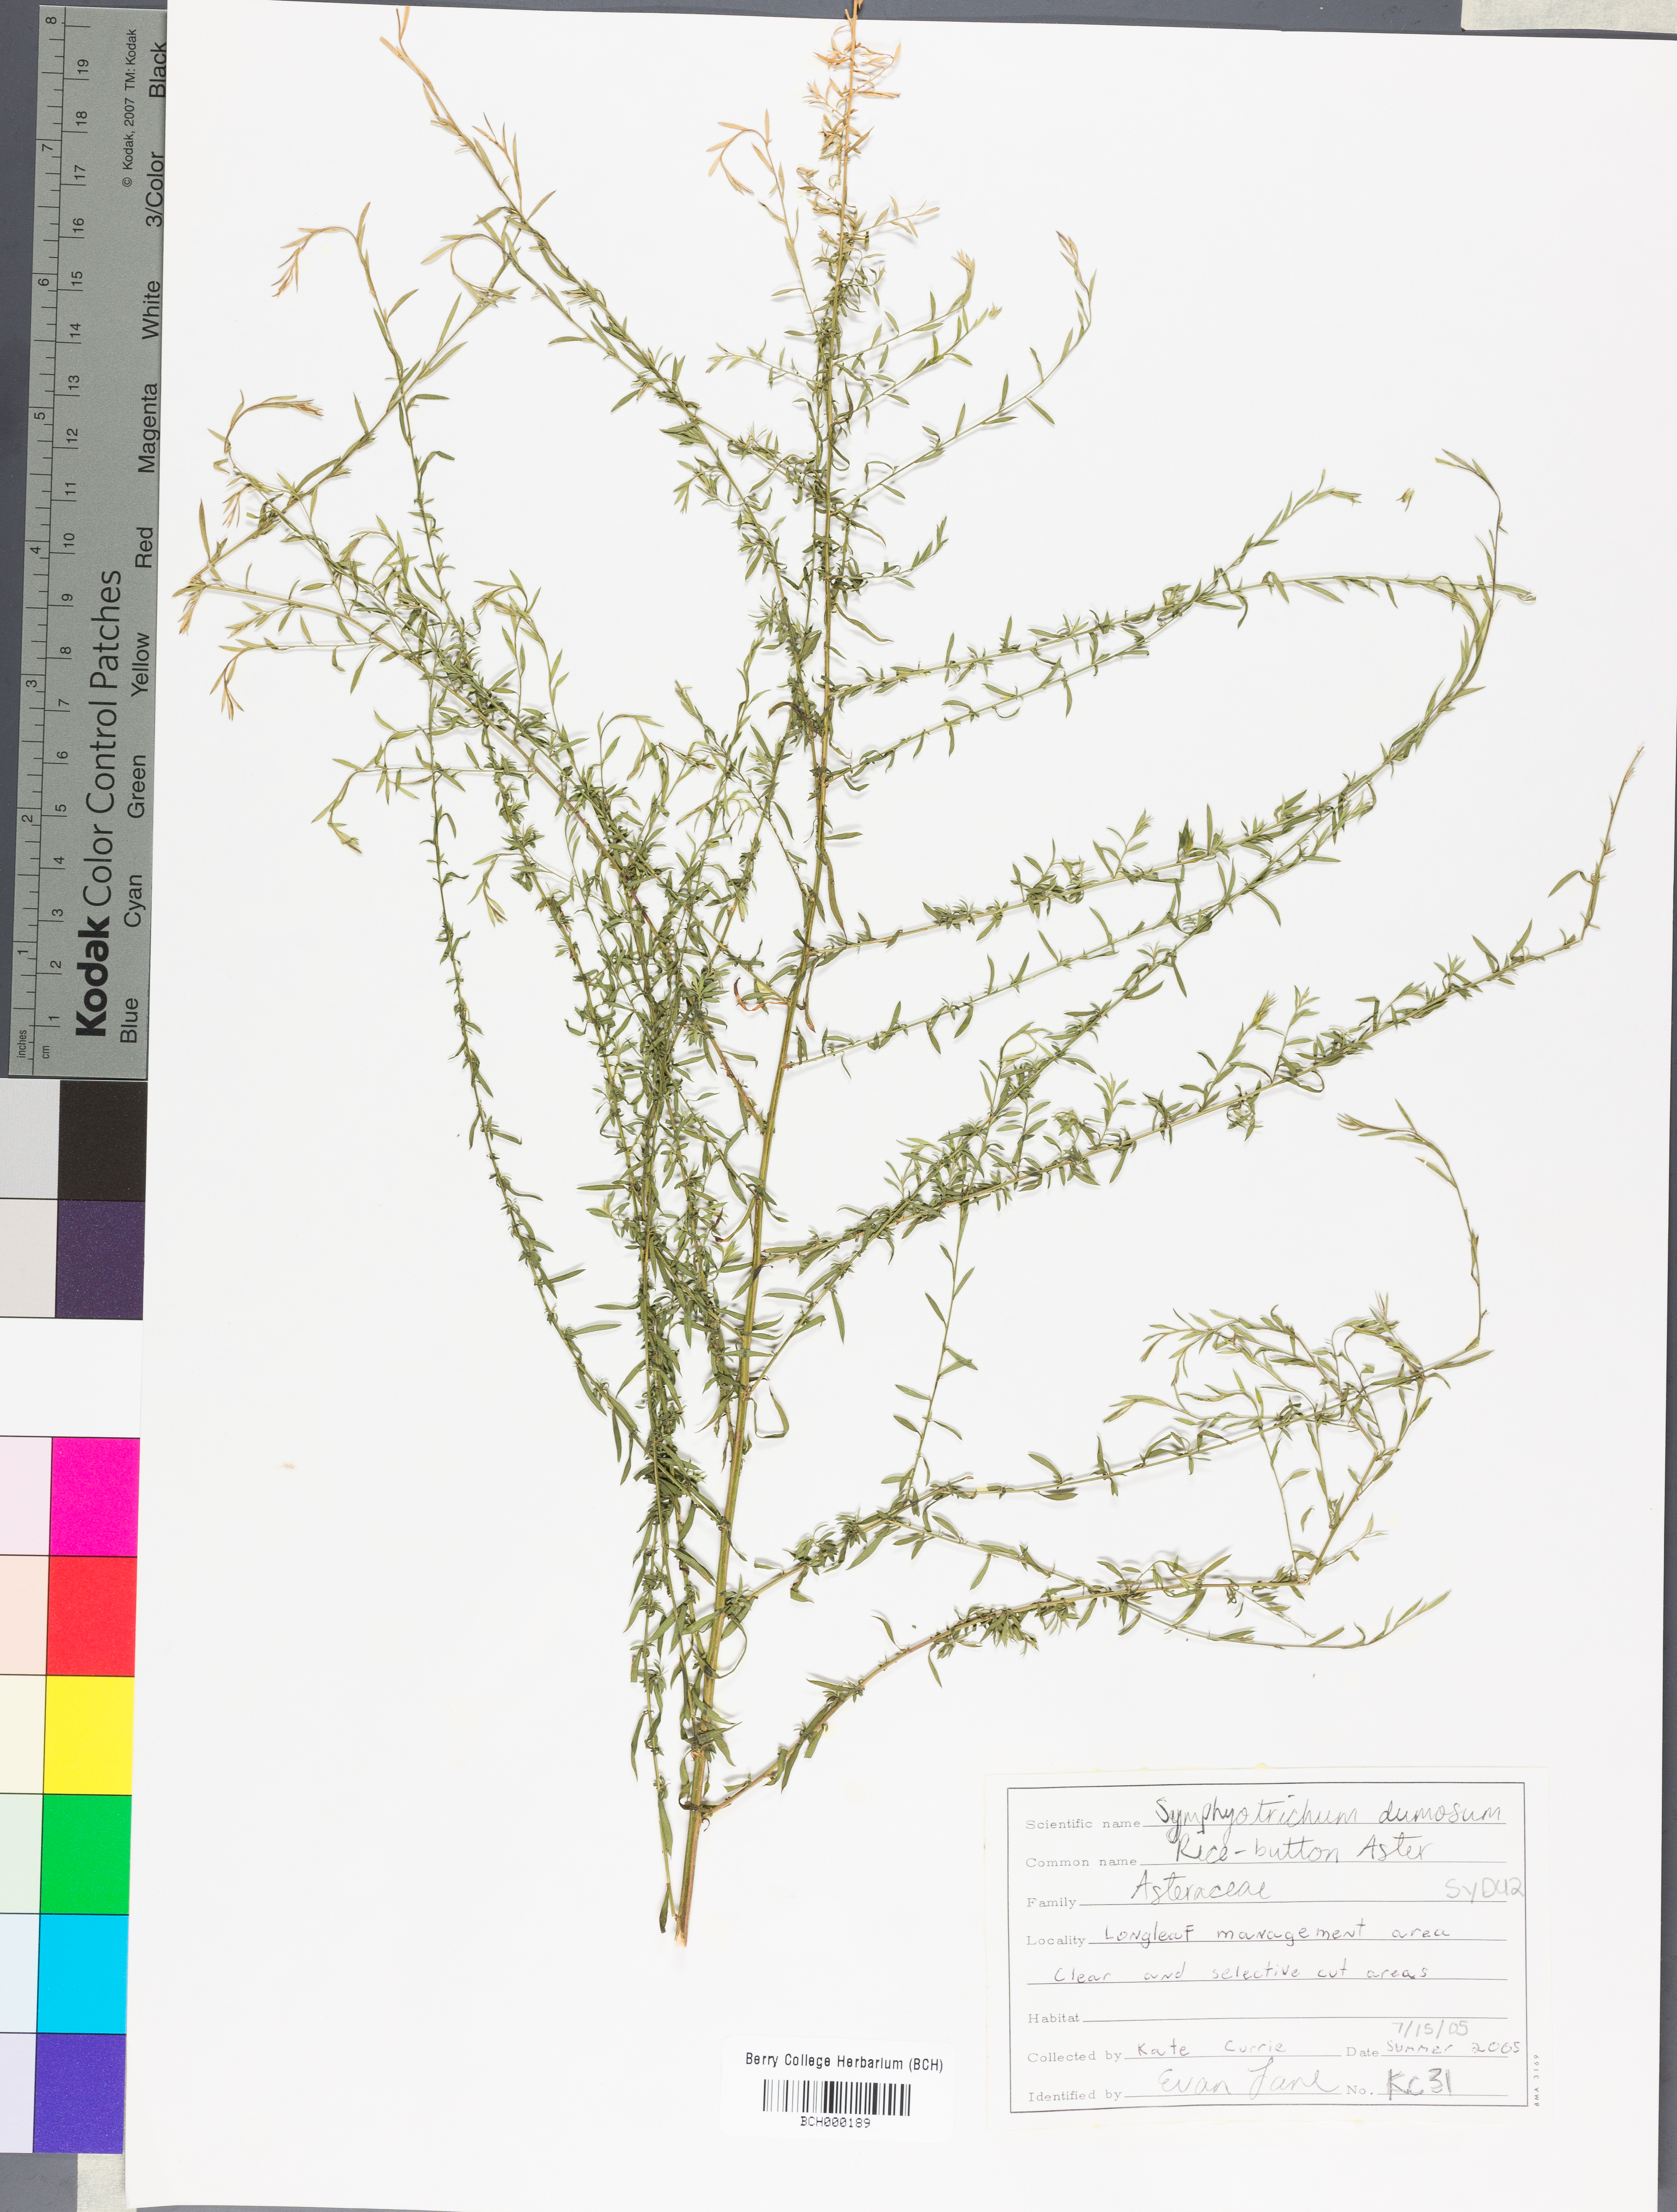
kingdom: Plantae
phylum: Tracheophyta
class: Magnoliopsida
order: Asterales
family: Asteraceae
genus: Symphyotrichum
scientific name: Symphyotrichum dumosum
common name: Bushy aster
